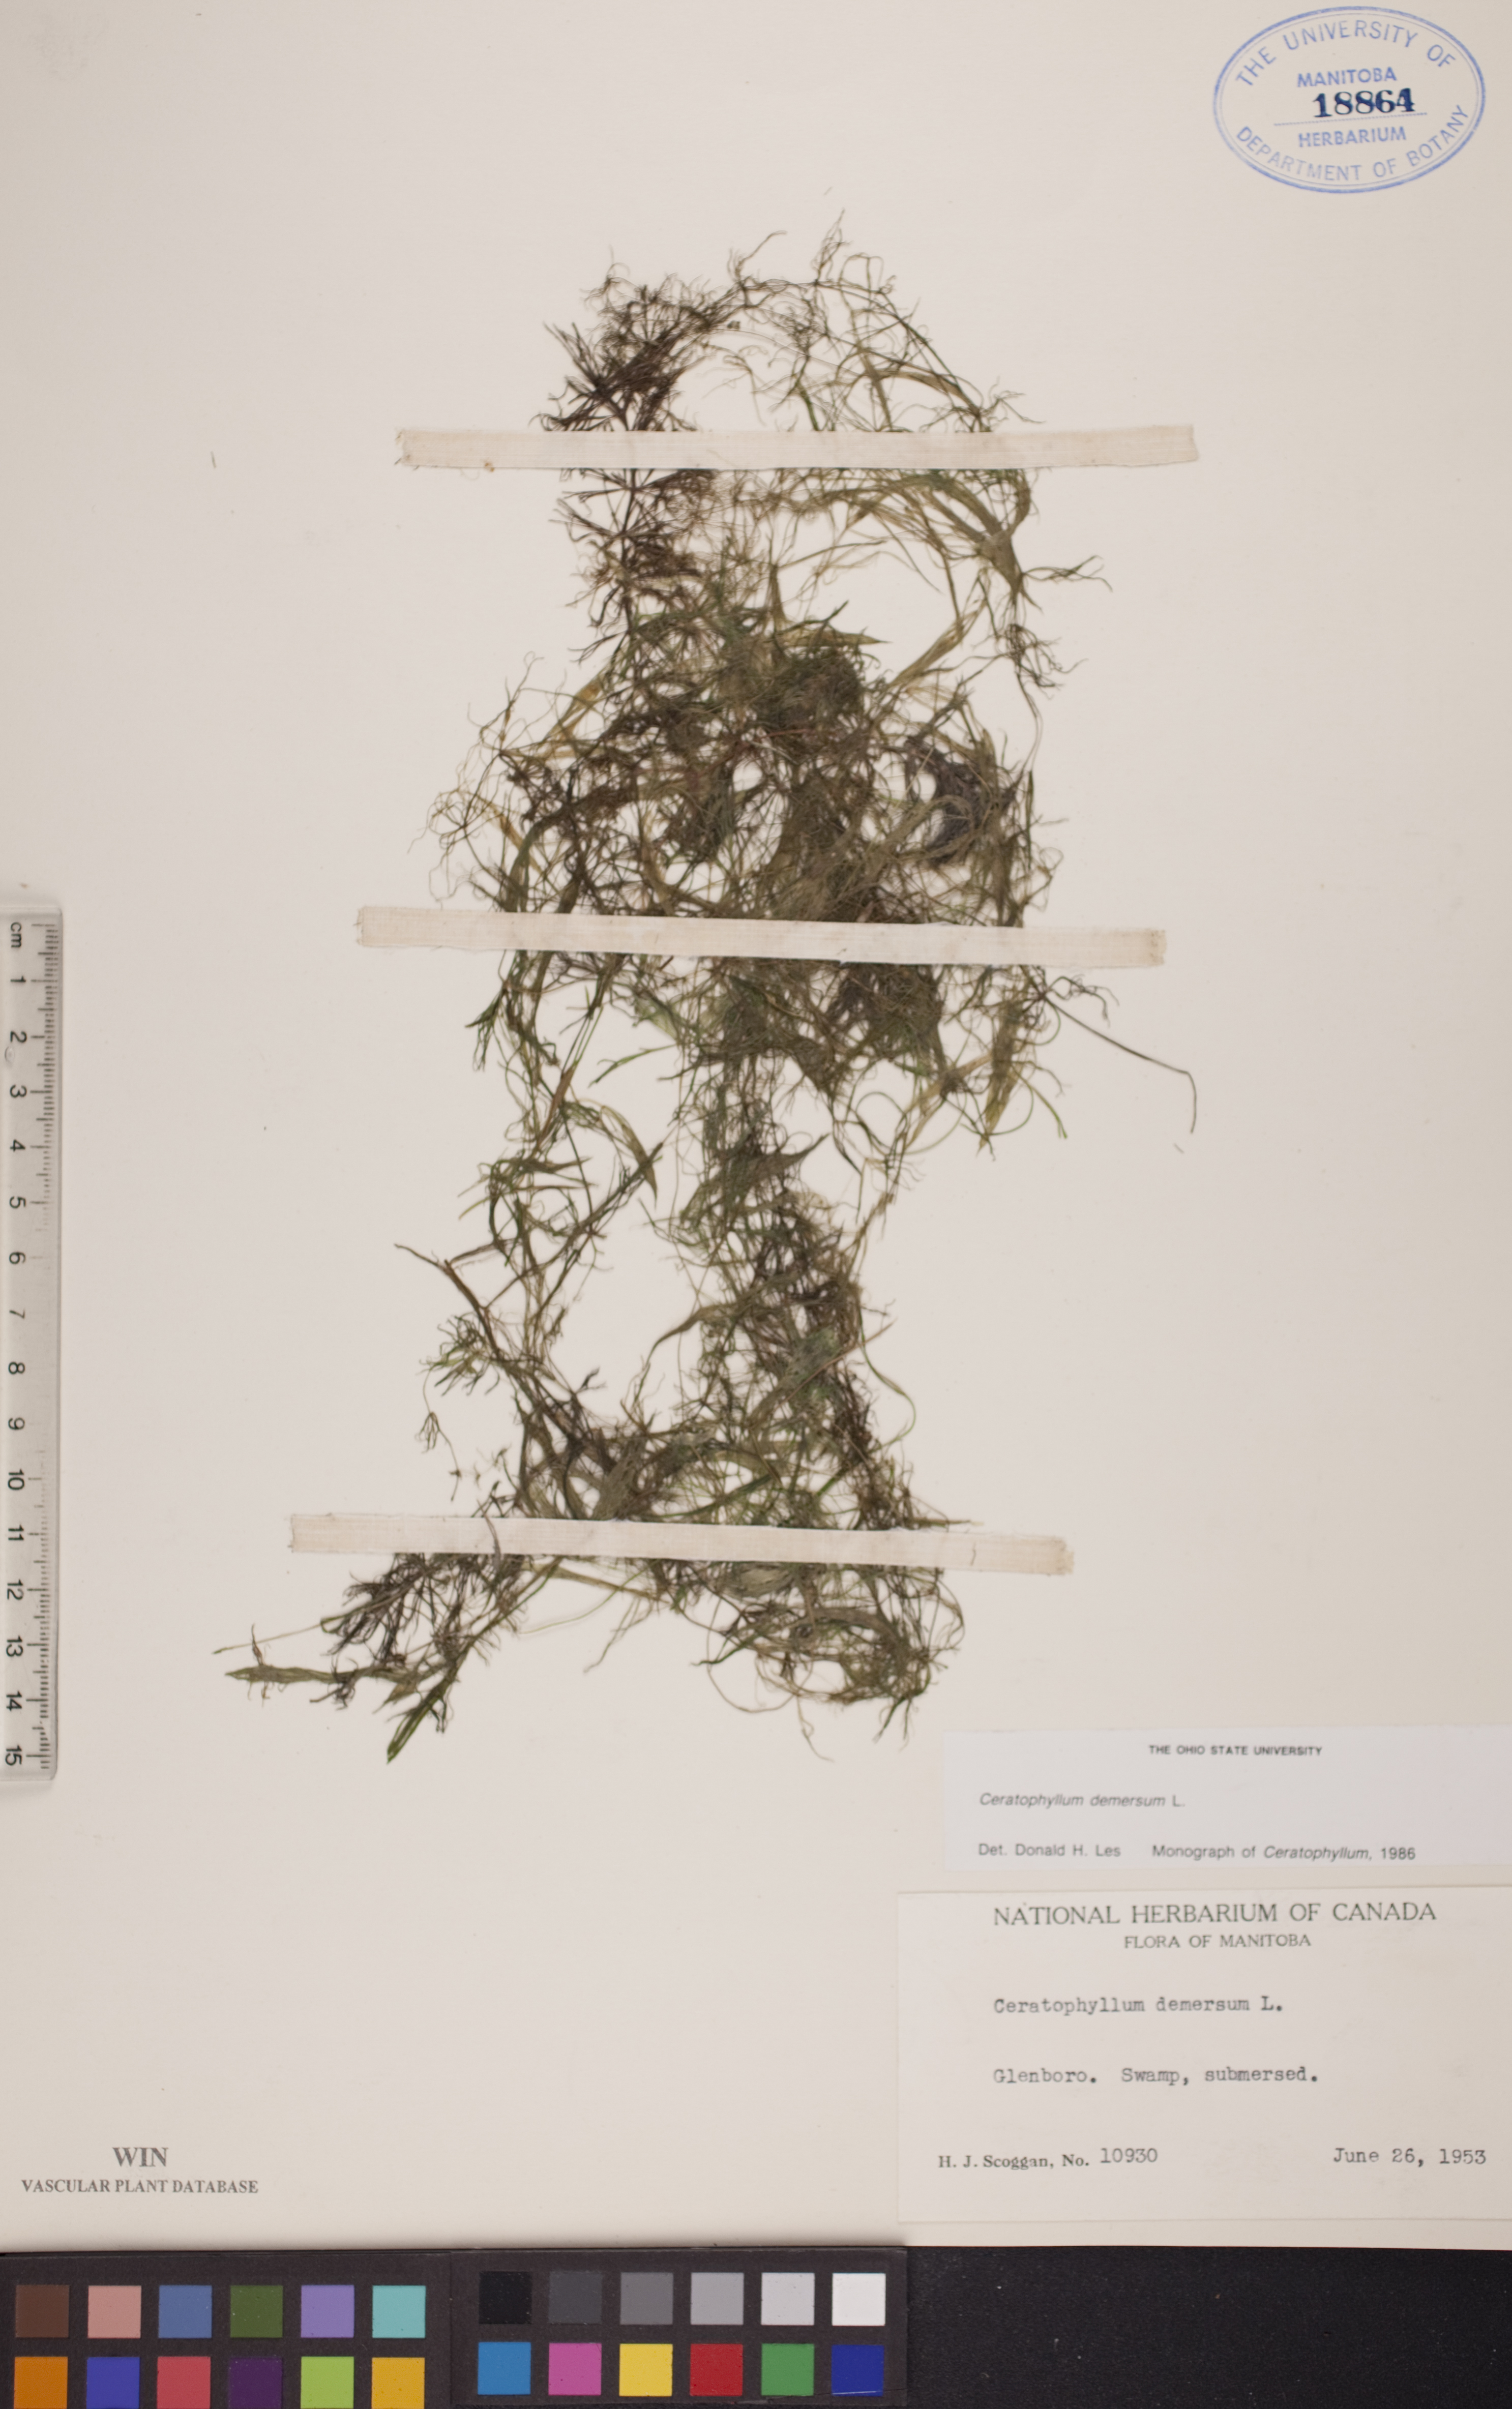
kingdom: Plantae
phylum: Tracheophyta
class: Magnoliopsida
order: Ceratophyllales
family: Ceratophyllaceae
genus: Ceratophyllum
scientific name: Ceratophyllum demersum
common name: Rigid hornwort
